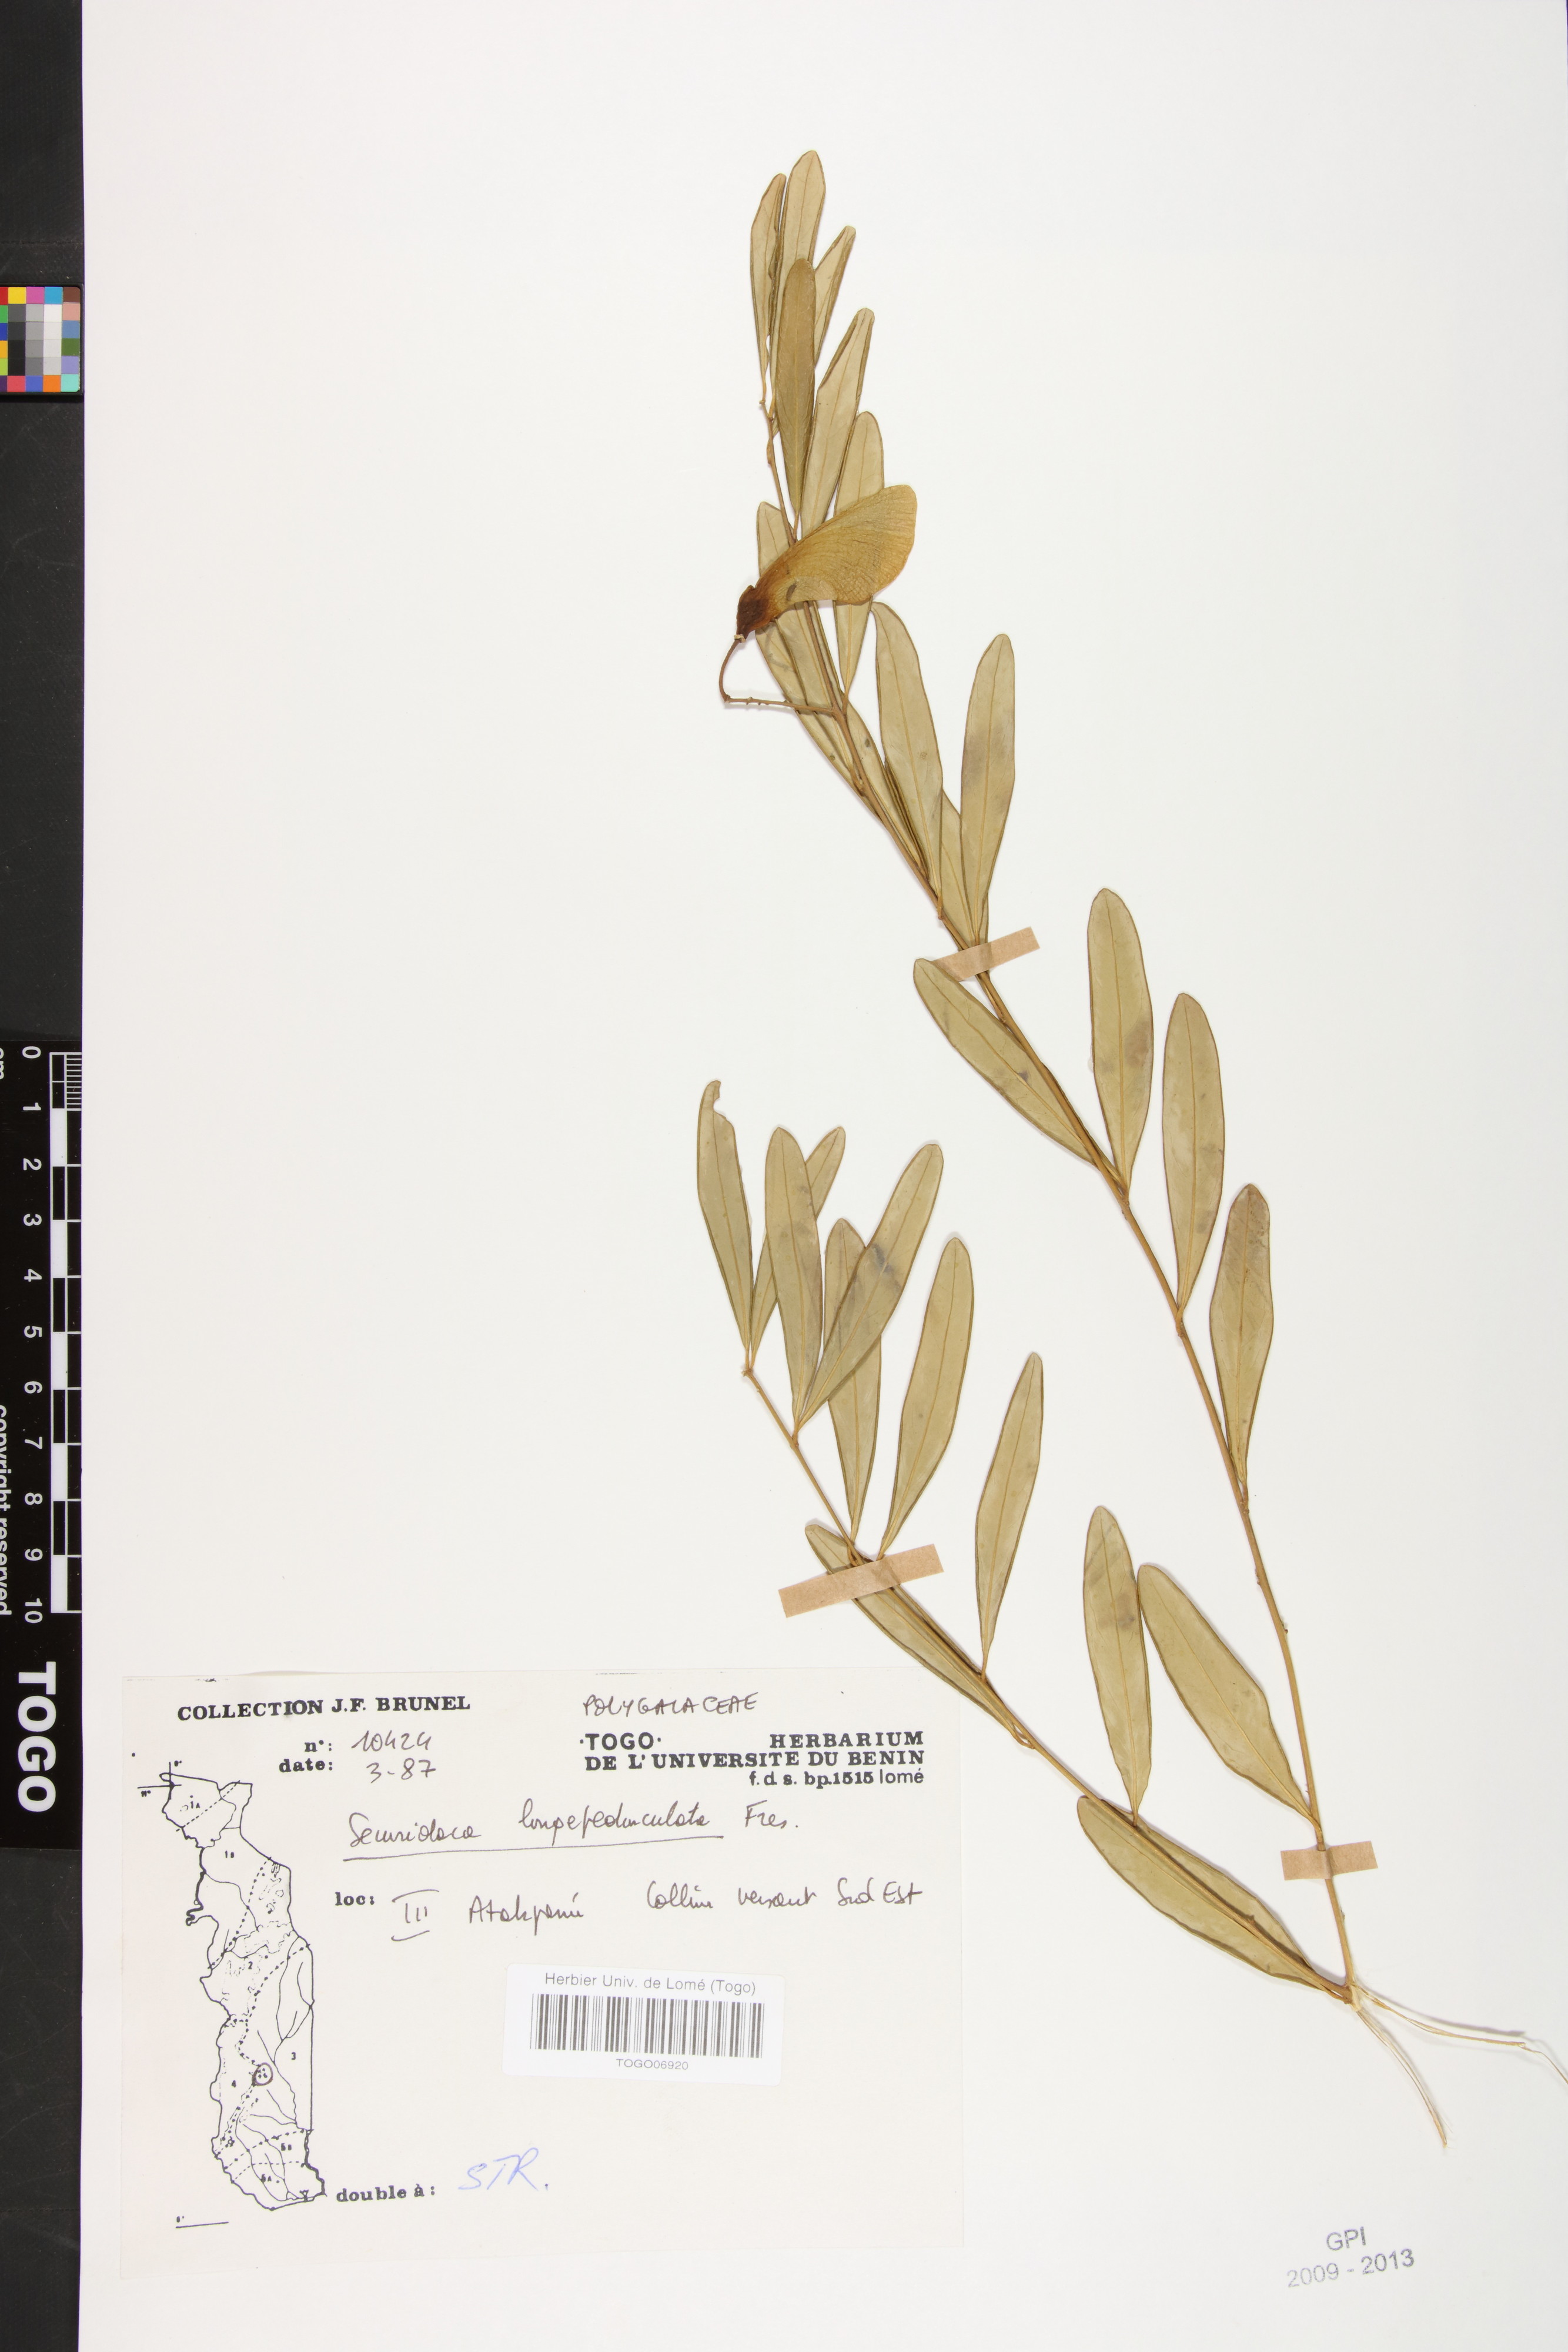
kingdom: Plantae
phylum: Tracheophyta
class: Magnoliopsida
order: Fabales
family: Polygalaceae
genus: Securidaca
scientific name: Securidaca longepedunculata
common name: Violet tree
